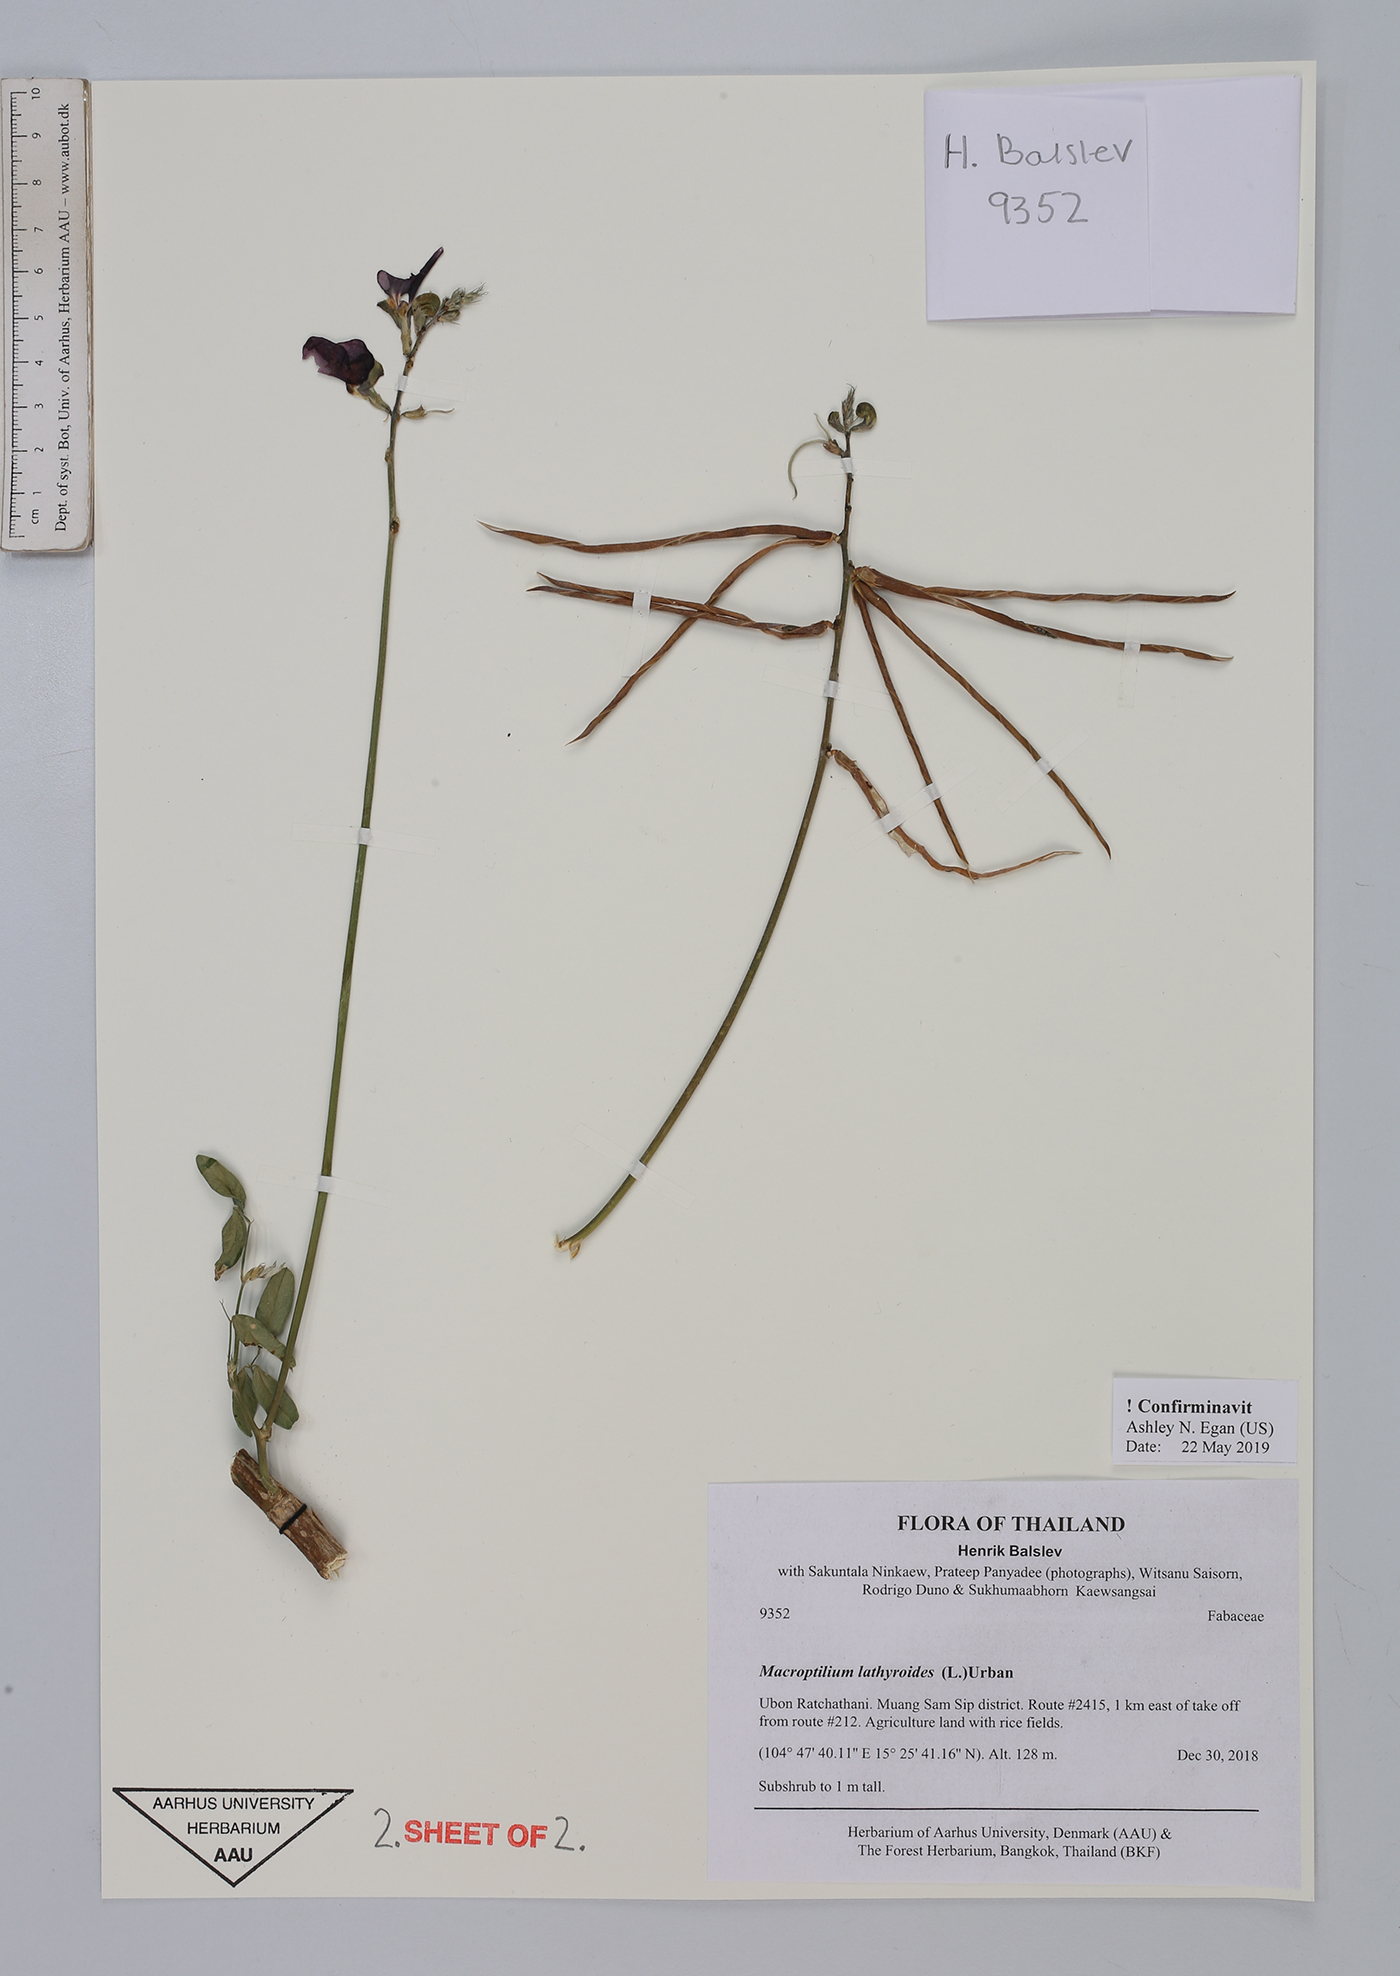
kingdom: Plantae
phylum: Tracheophyta
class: Magnoliopsida
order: Fabales
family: Fabaceae
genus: Macroptilium
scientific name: Macroptilium lathyroides
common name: Wild bushbean
